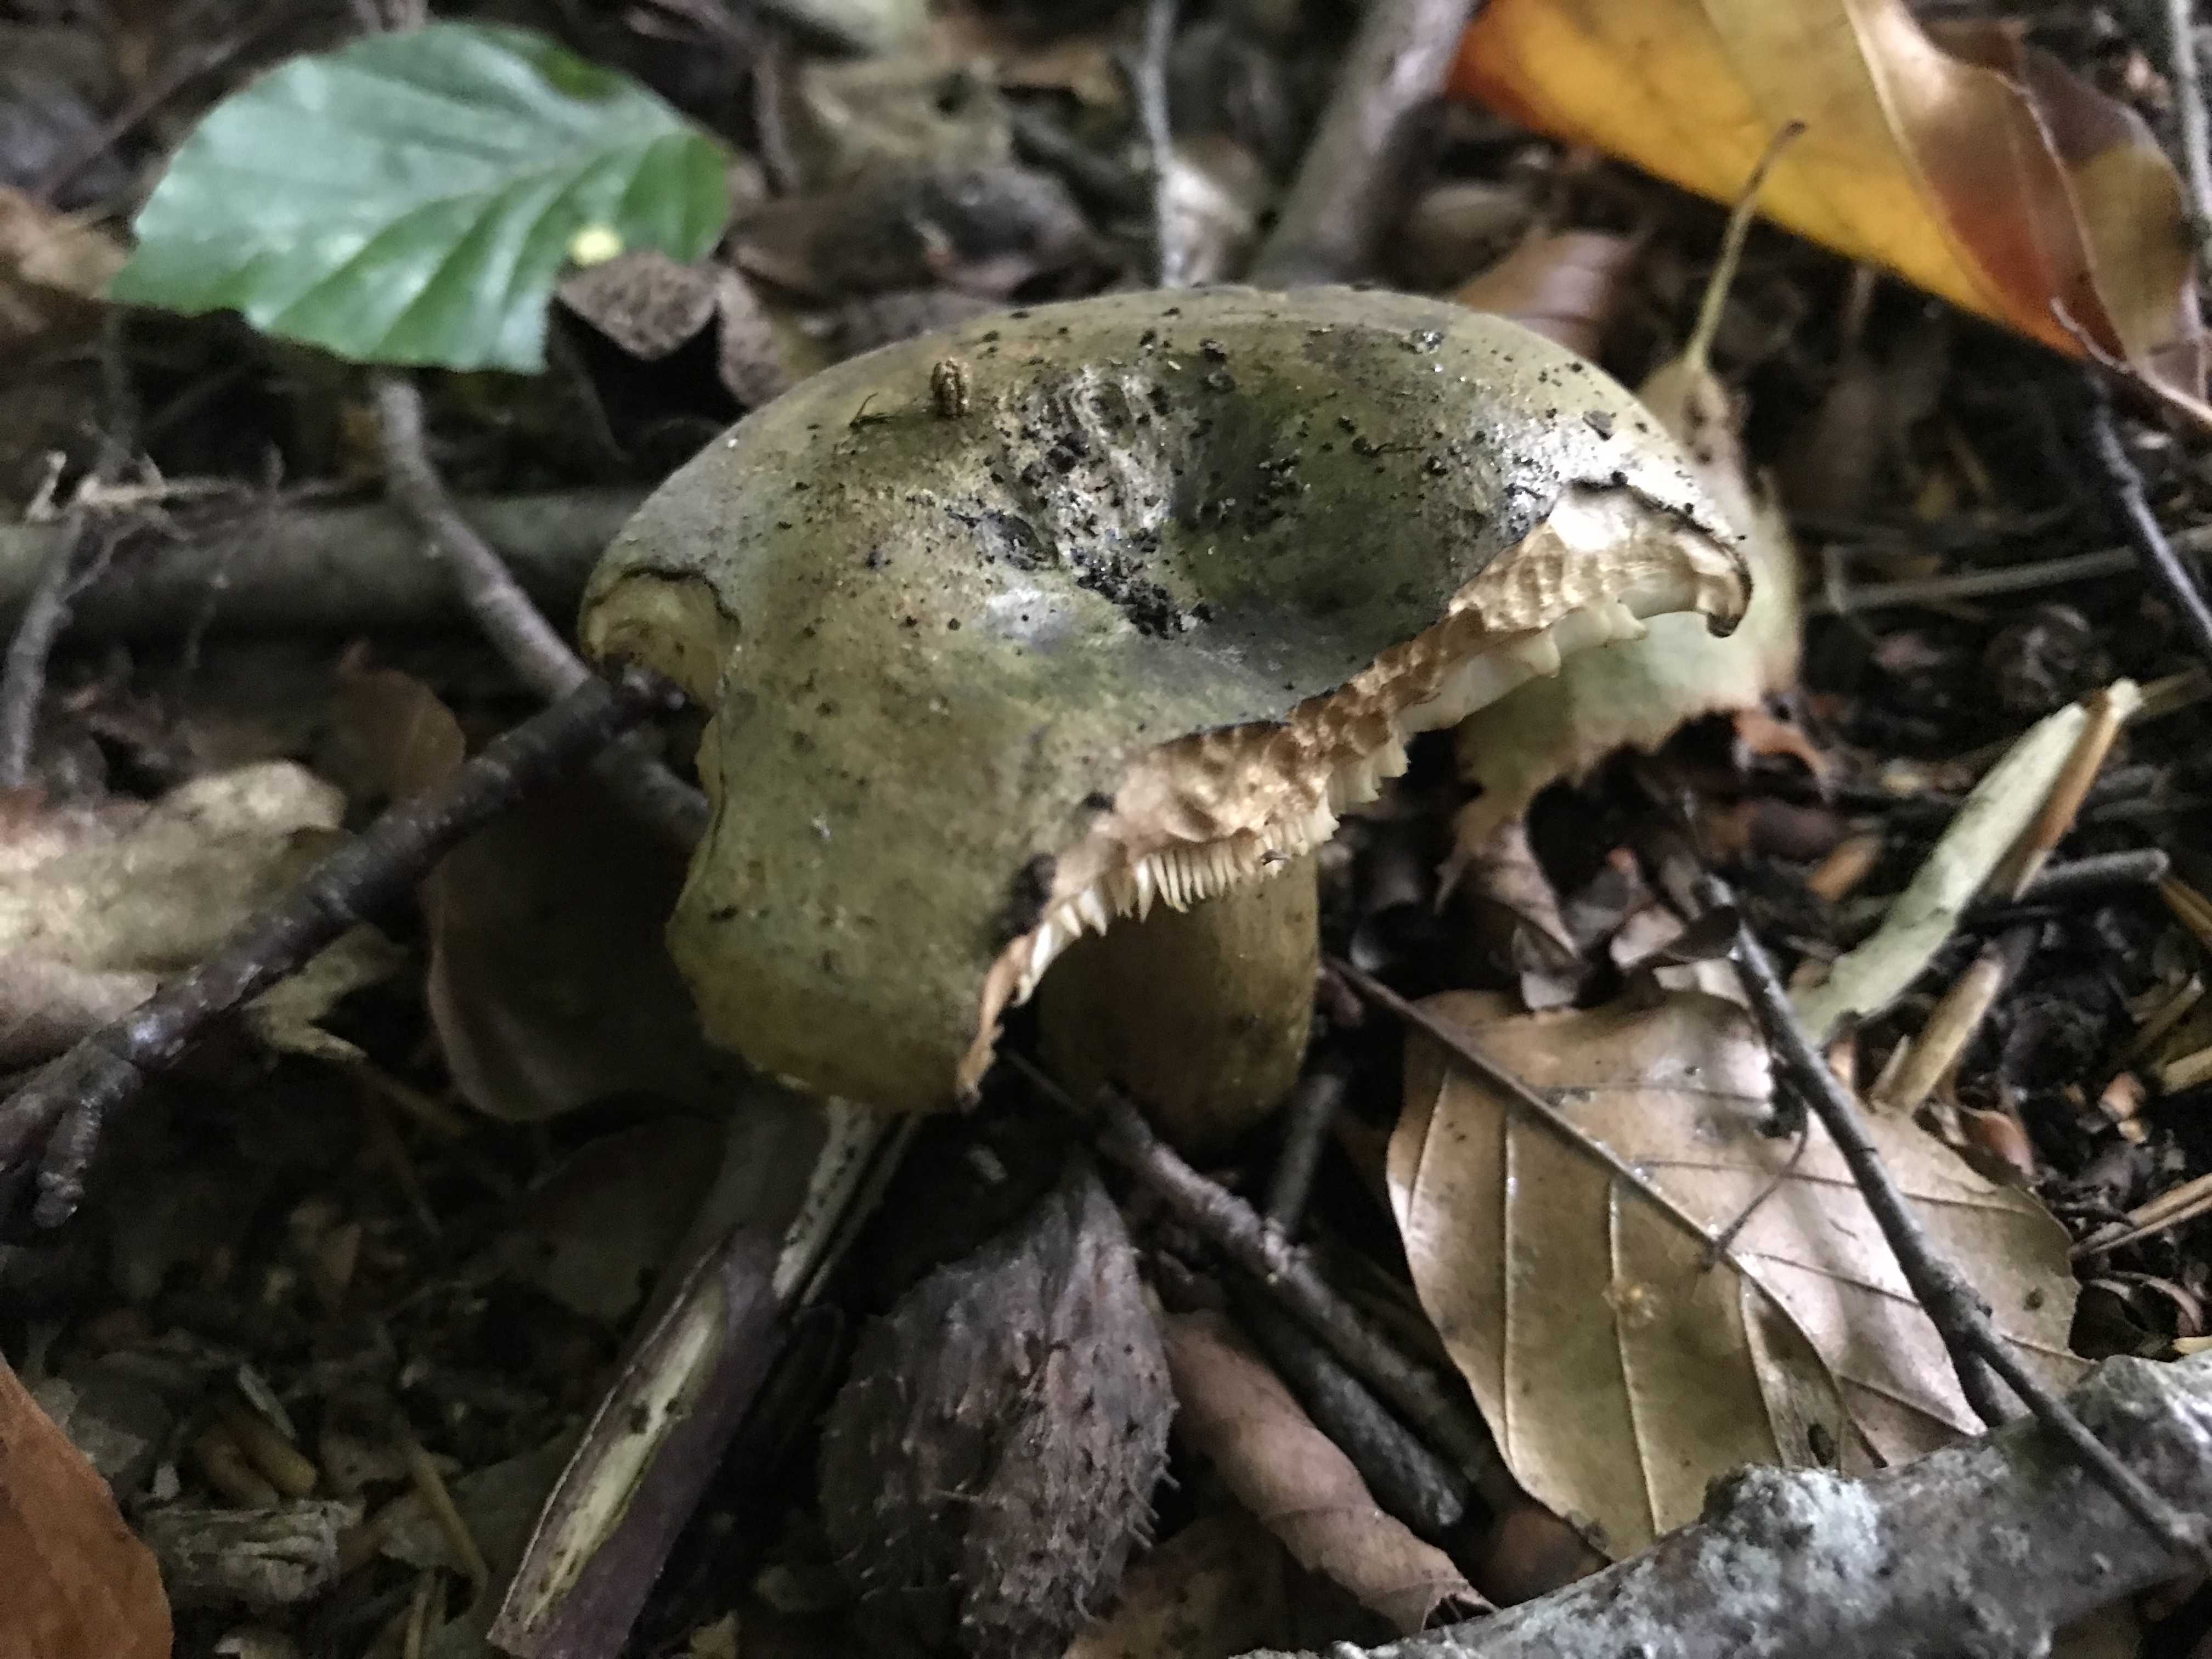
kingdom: Fungi
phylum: Basidiomycota
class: Agaricomycetes
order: Russulales
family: Russulaceae
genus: Lactarius
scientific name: Lactarius necator
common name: manddraber-mælkehat
